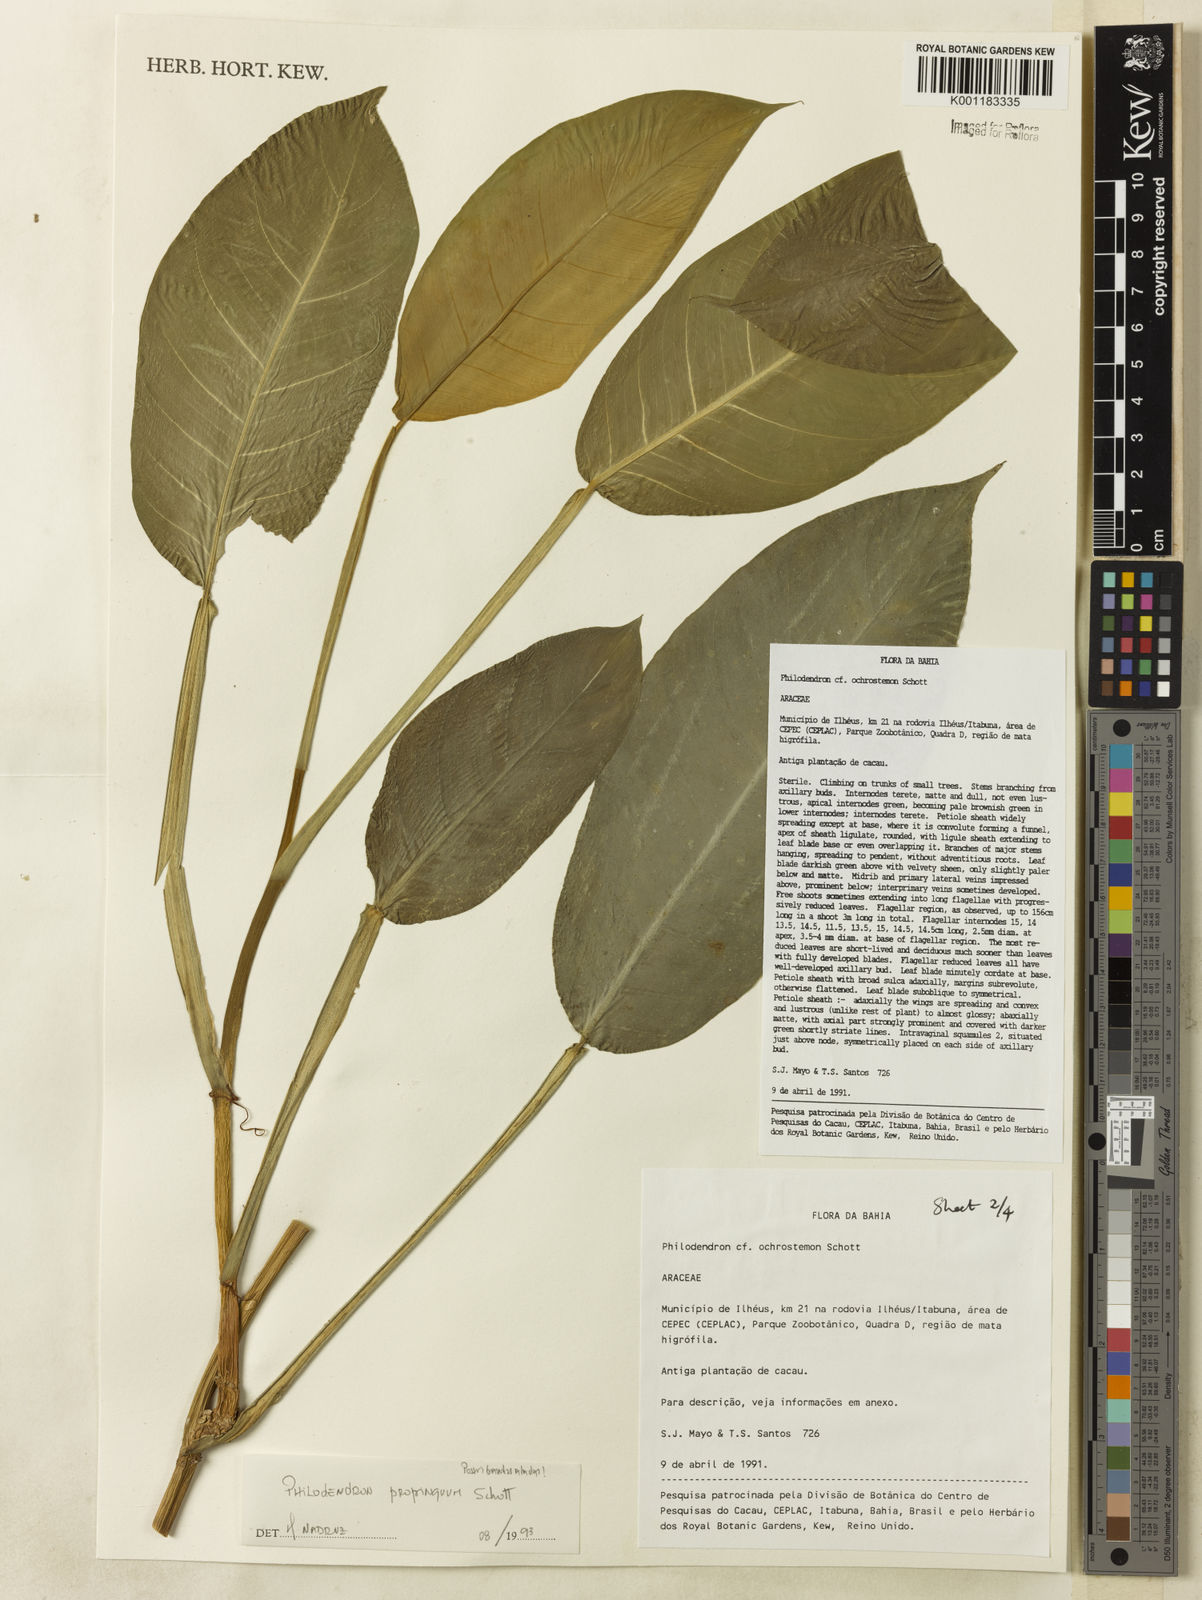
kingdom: Plantae
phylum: Tracheophyta
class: Liliopsida
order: Alismatales
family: Araceae
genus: Philodendron
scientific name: Philodendron propinquum
